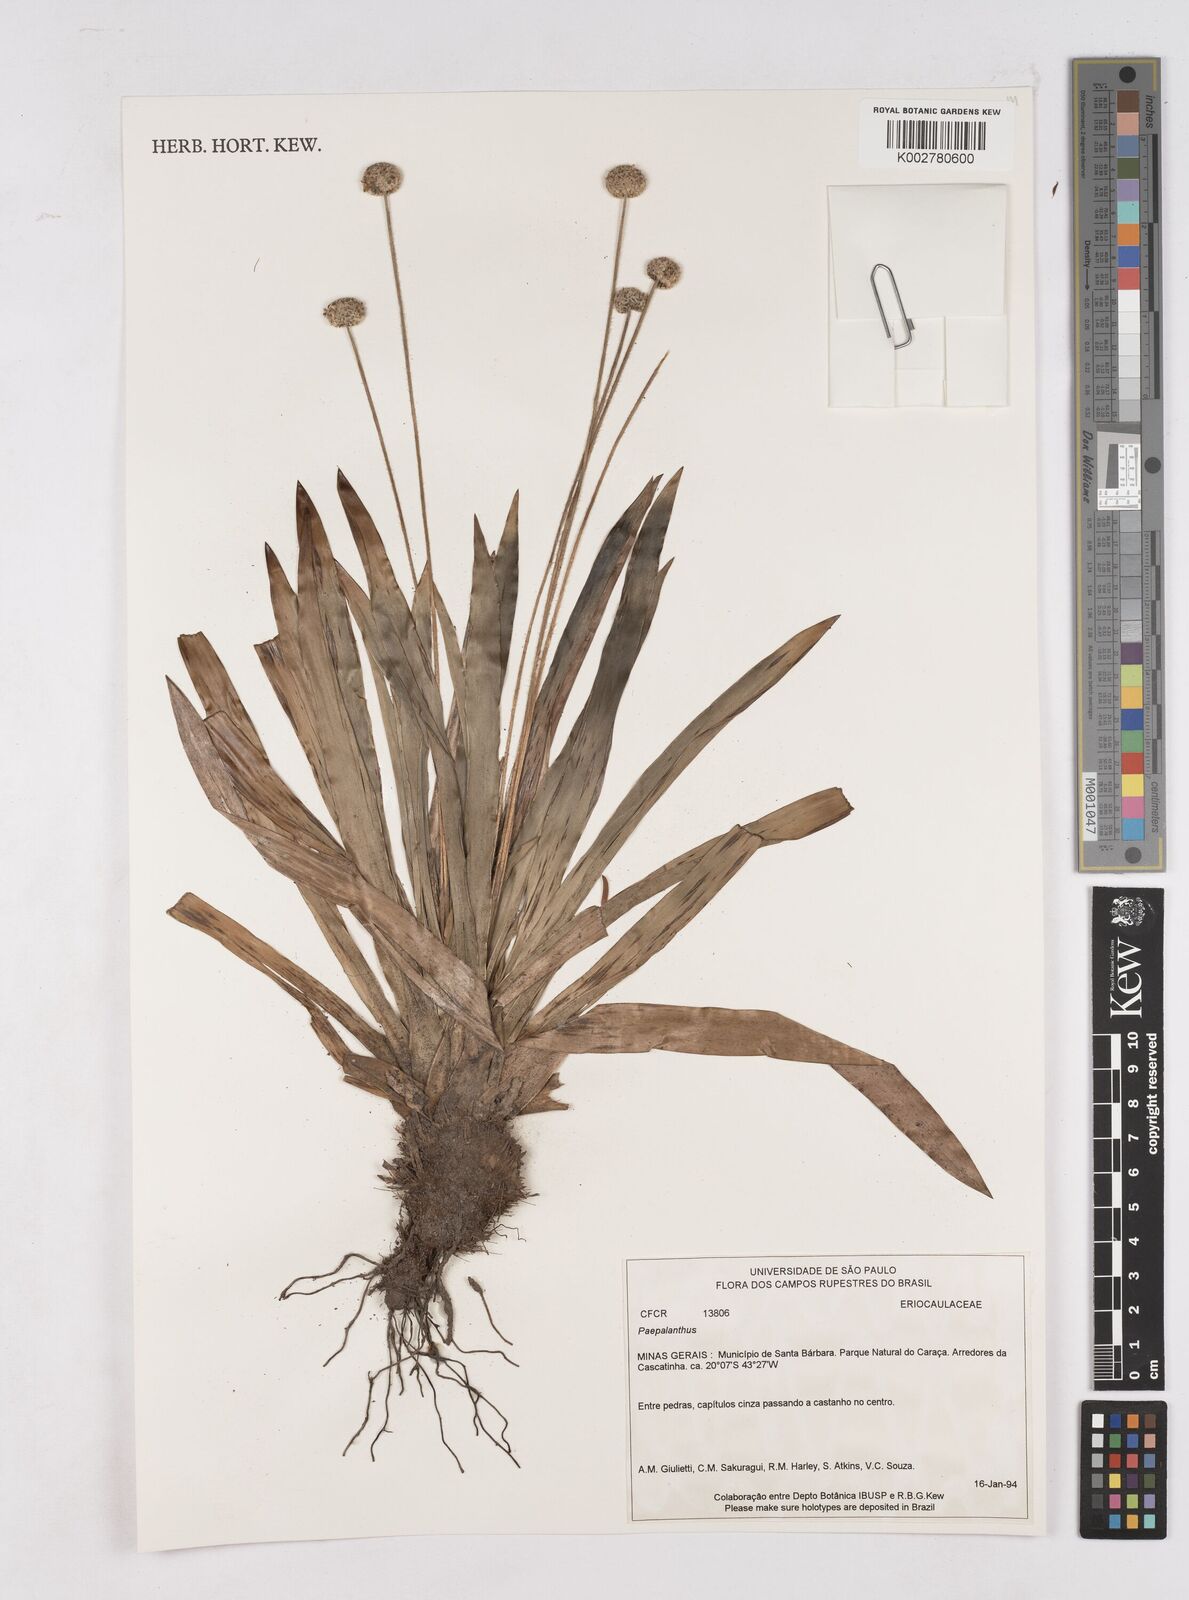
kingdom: Plantae
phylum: Tracheophyta
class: Liliopsida
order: Poales
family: Eriocaulaceae
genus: Paepalanthus
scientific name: Paepalanthus
